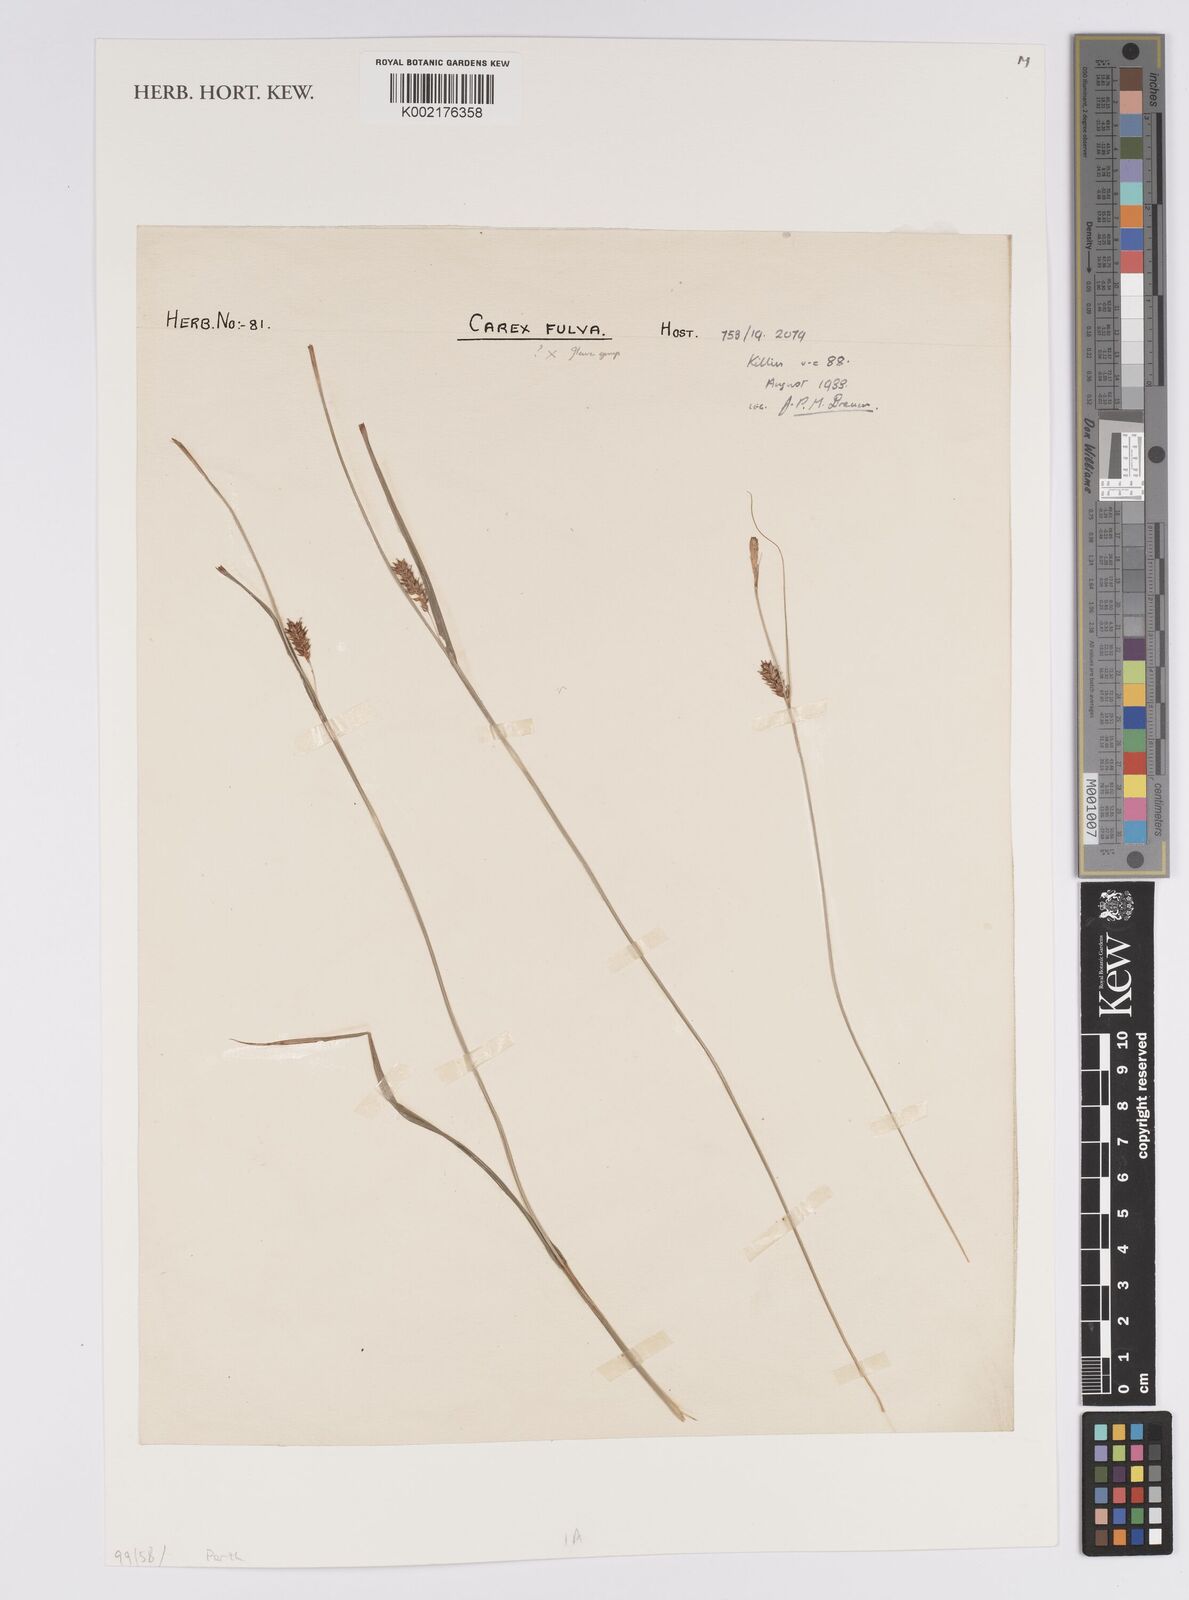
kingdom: Plantae
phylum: Tracheophyta
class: Liliopsida
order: Poales
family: Cyperaceae
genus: Carex
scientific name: Carex distans
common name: Distant sedge
